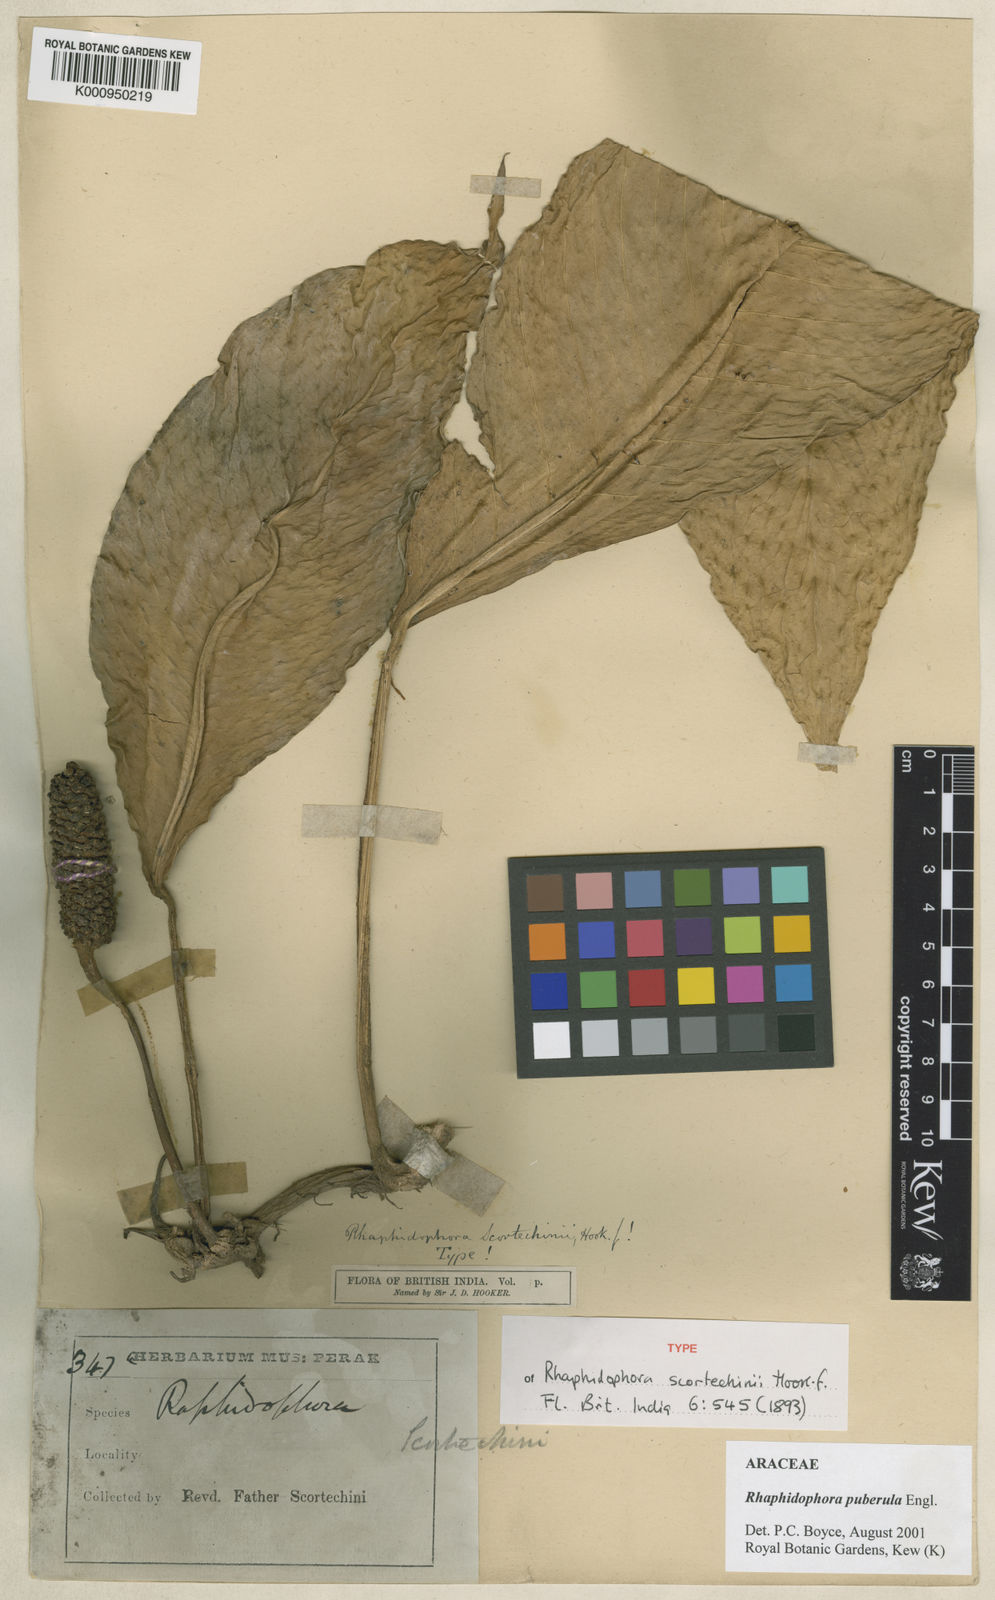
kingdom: Plantae
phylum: Tracheophyta
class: Liliopsida
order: Alismatales
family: Araceae
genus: Rhaphidophora
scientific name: Rhaphidophora puberula
